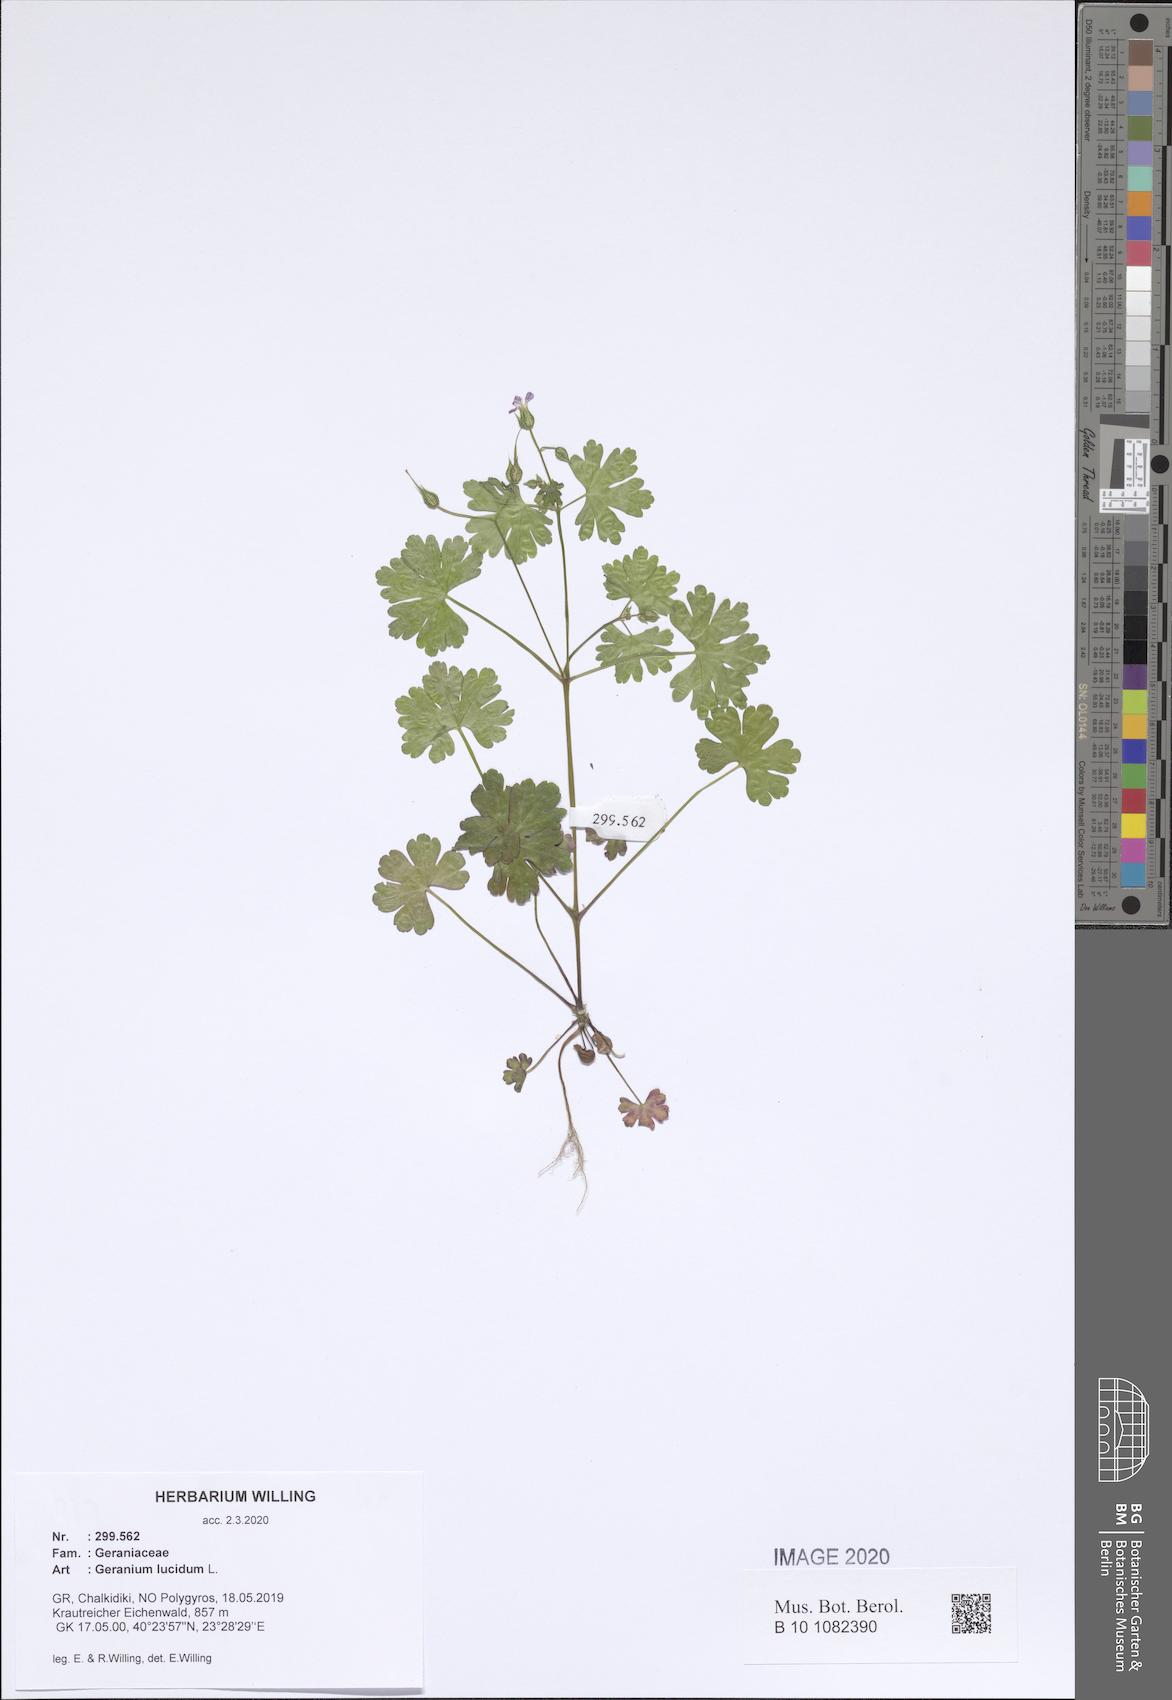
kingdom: Plantae
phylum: Tracheophyta
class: Magnoliopsida
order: Geraniales
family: Geraniaceae
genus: Geranium
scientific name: Geranium lucidum
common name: Shining crane's-bill
